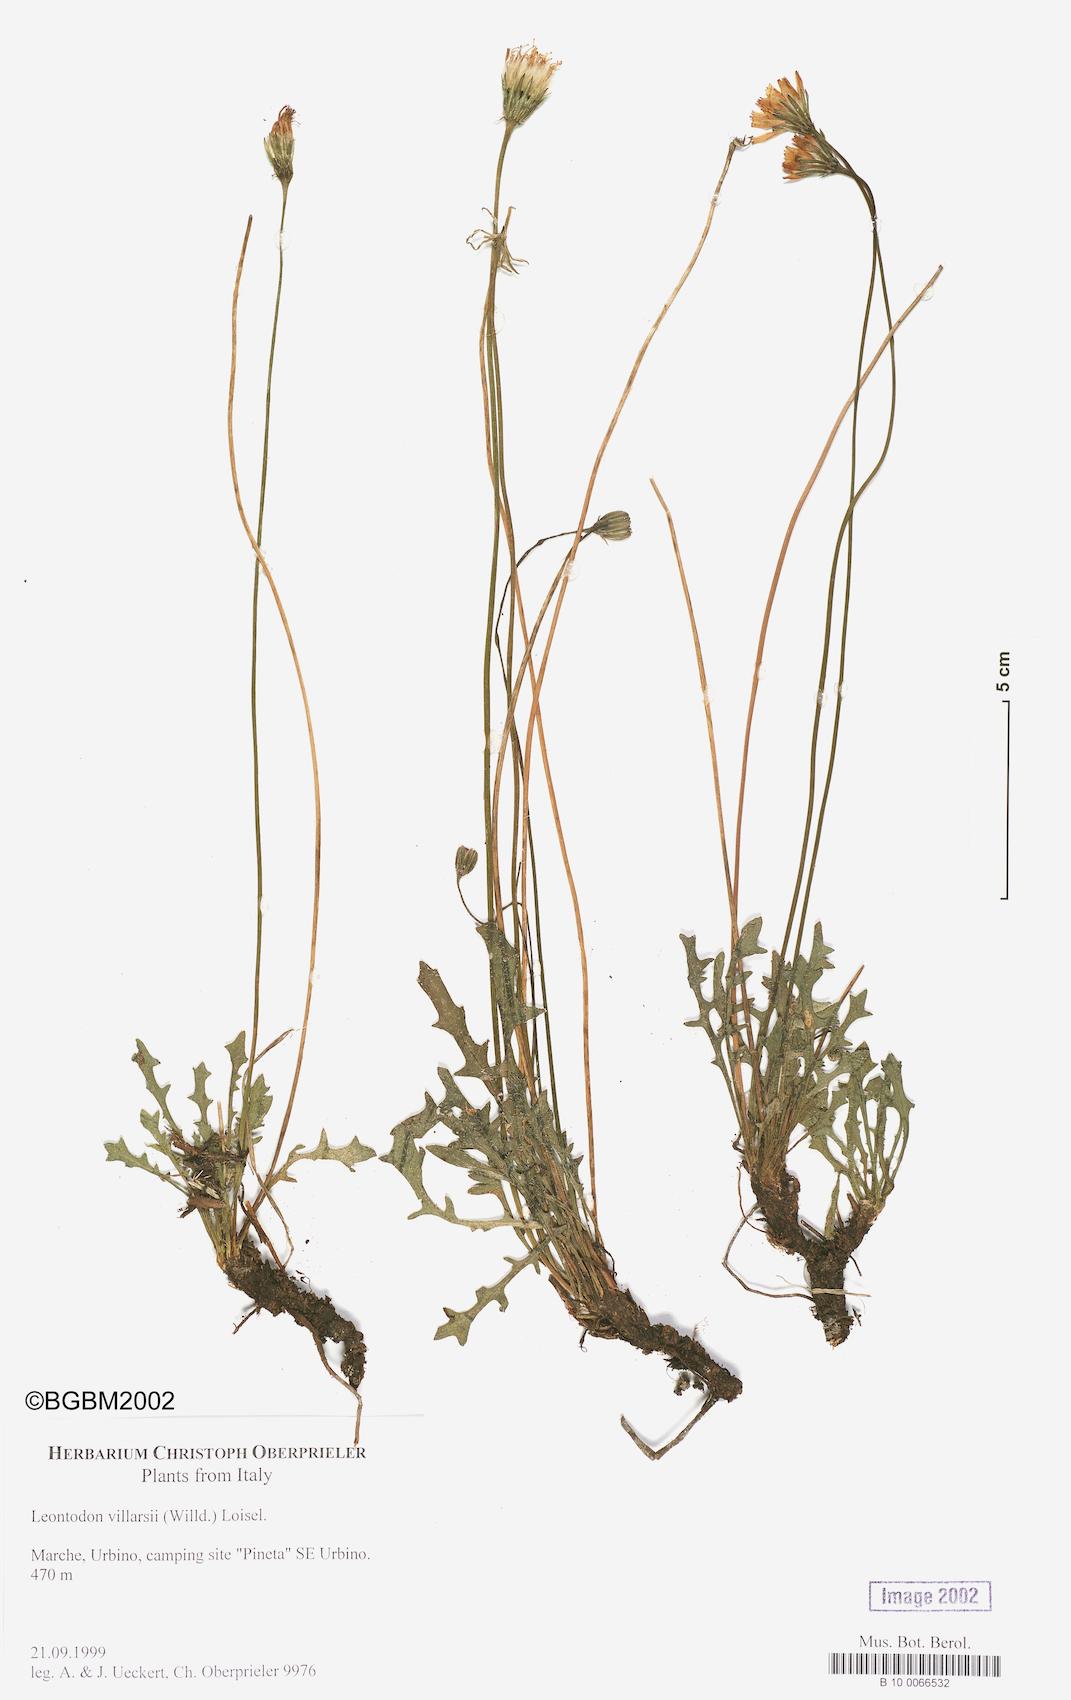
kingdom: Plantae
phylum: Tracheophyta
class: Magnoliopsida
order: Asterales
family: Asteraceae
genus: Leontodon
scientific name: Leontodon hirtus
